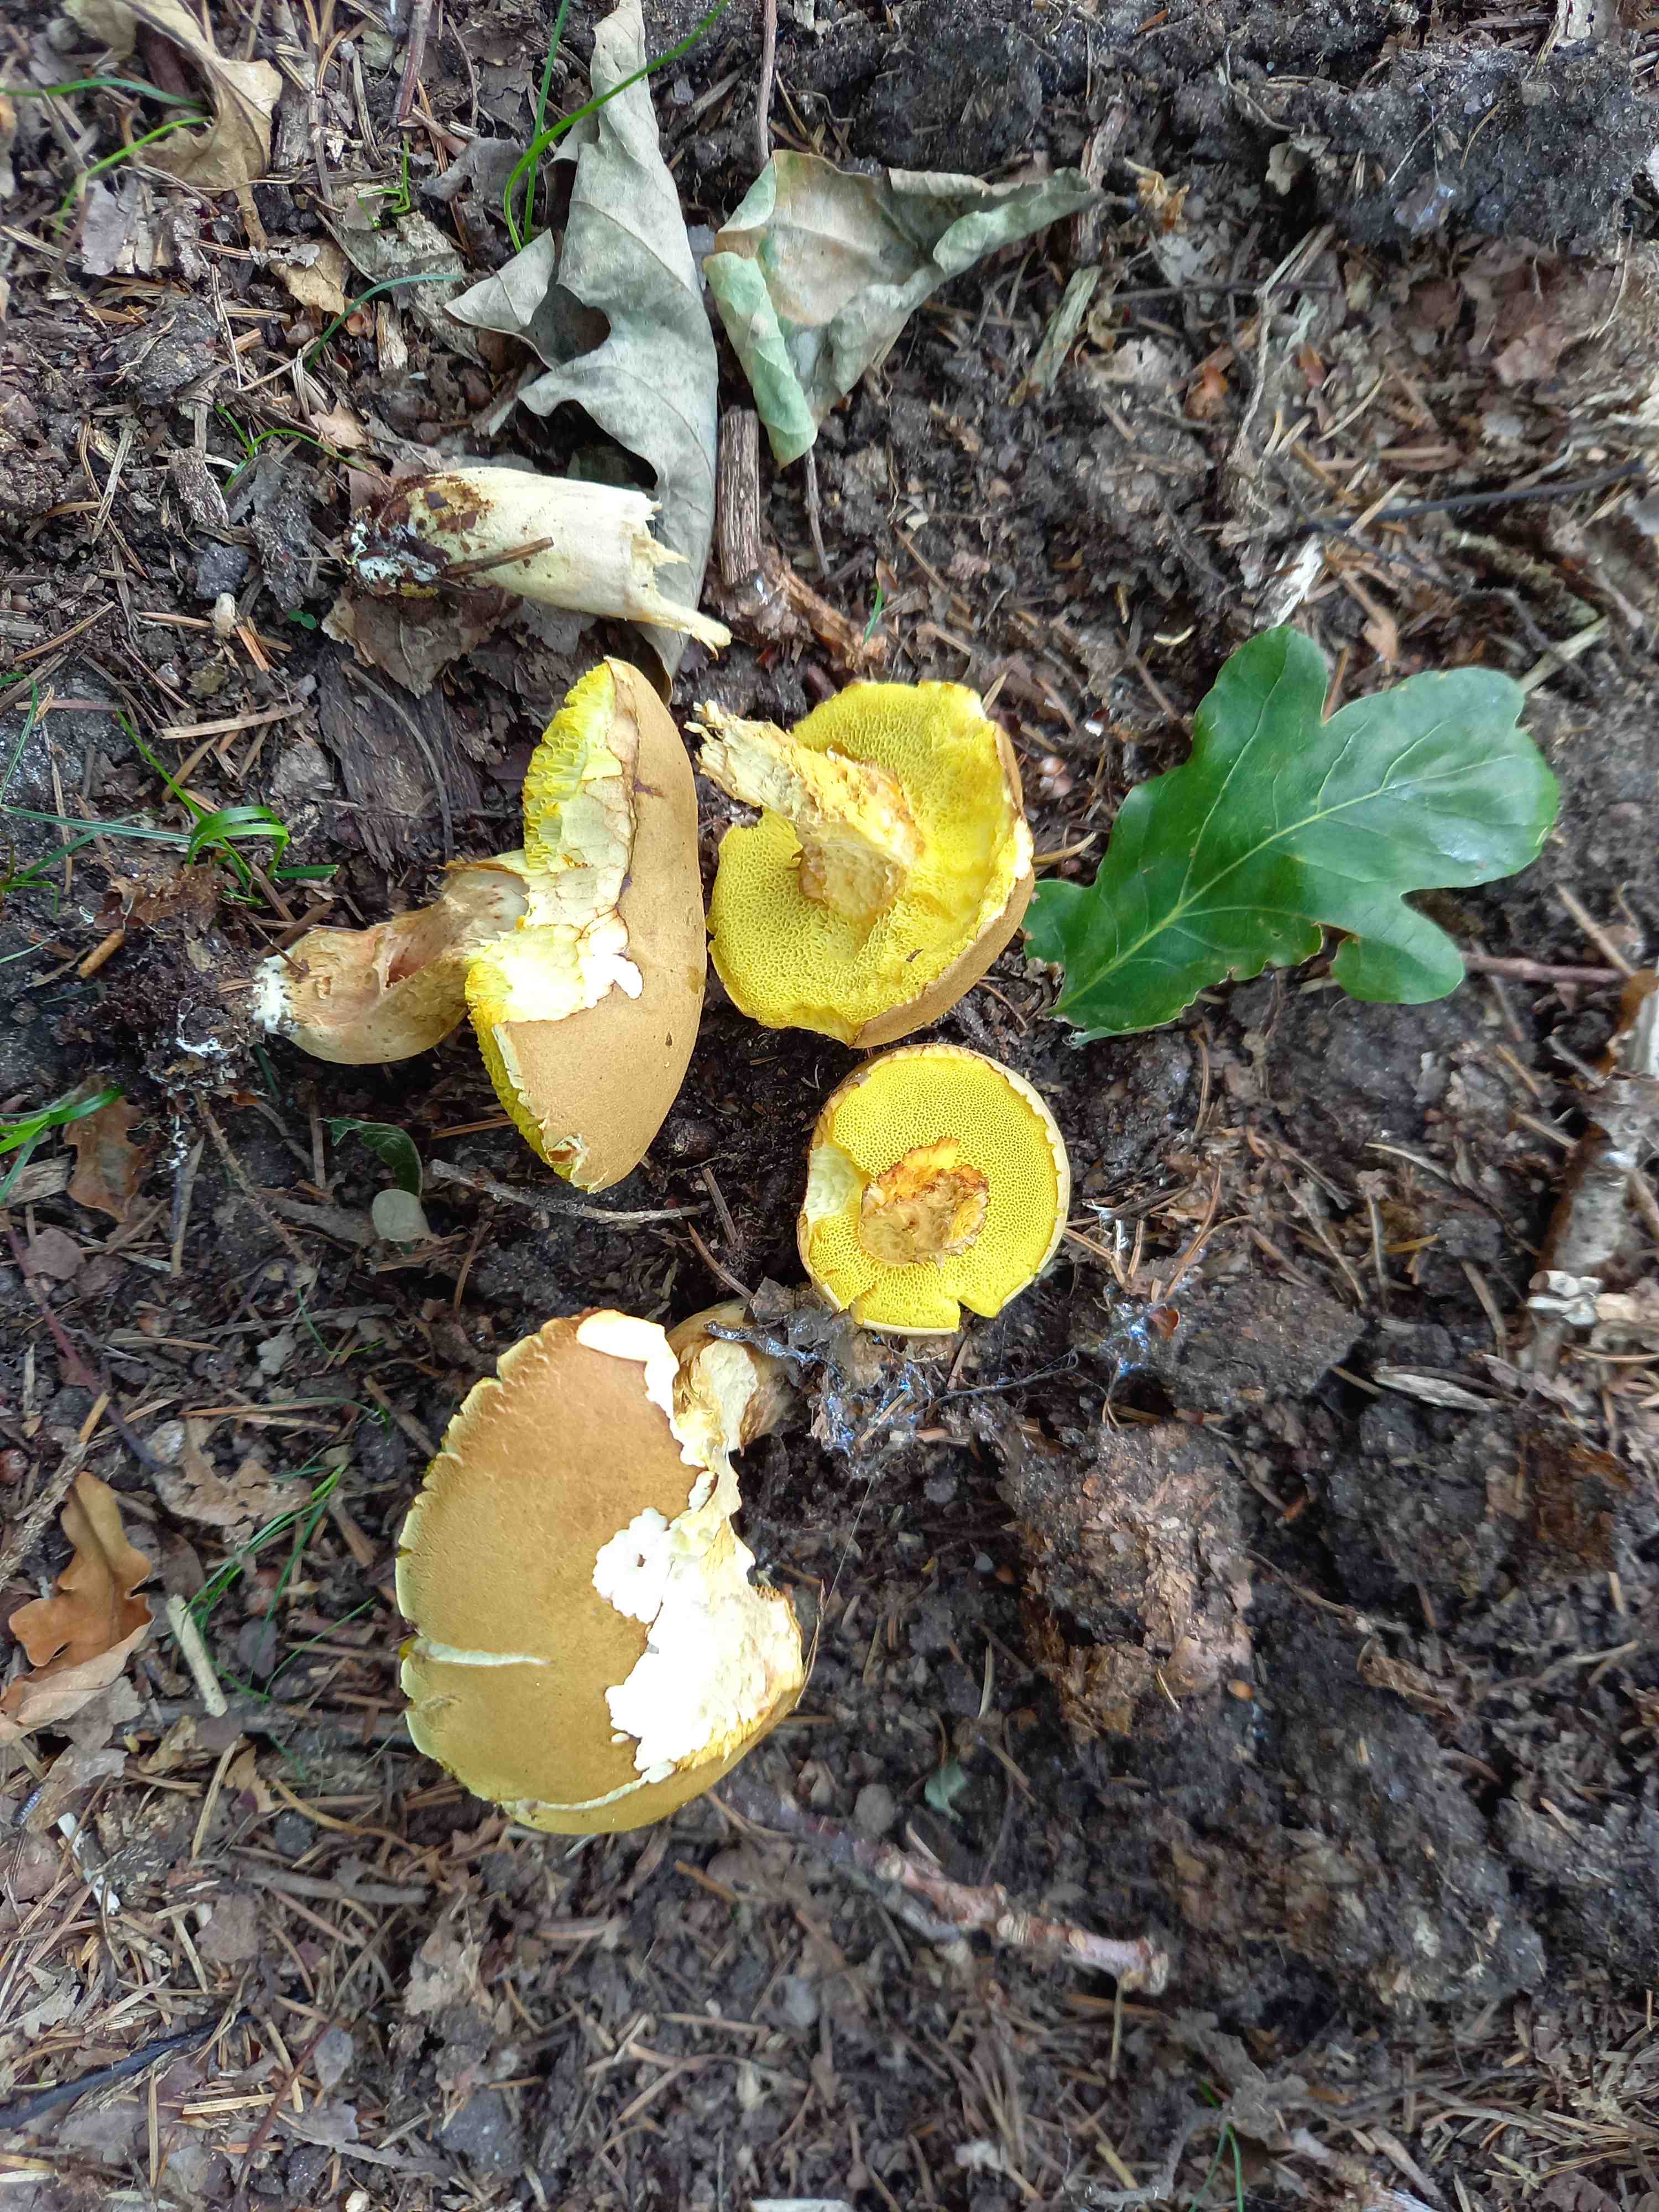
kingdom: Fungi
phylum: Basidiomycota
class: Agaricomycetes
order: Boletales
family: Boletaceae
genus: Xerocomus
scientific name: Xerocomus subtomentosus
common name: filtet rørhat
